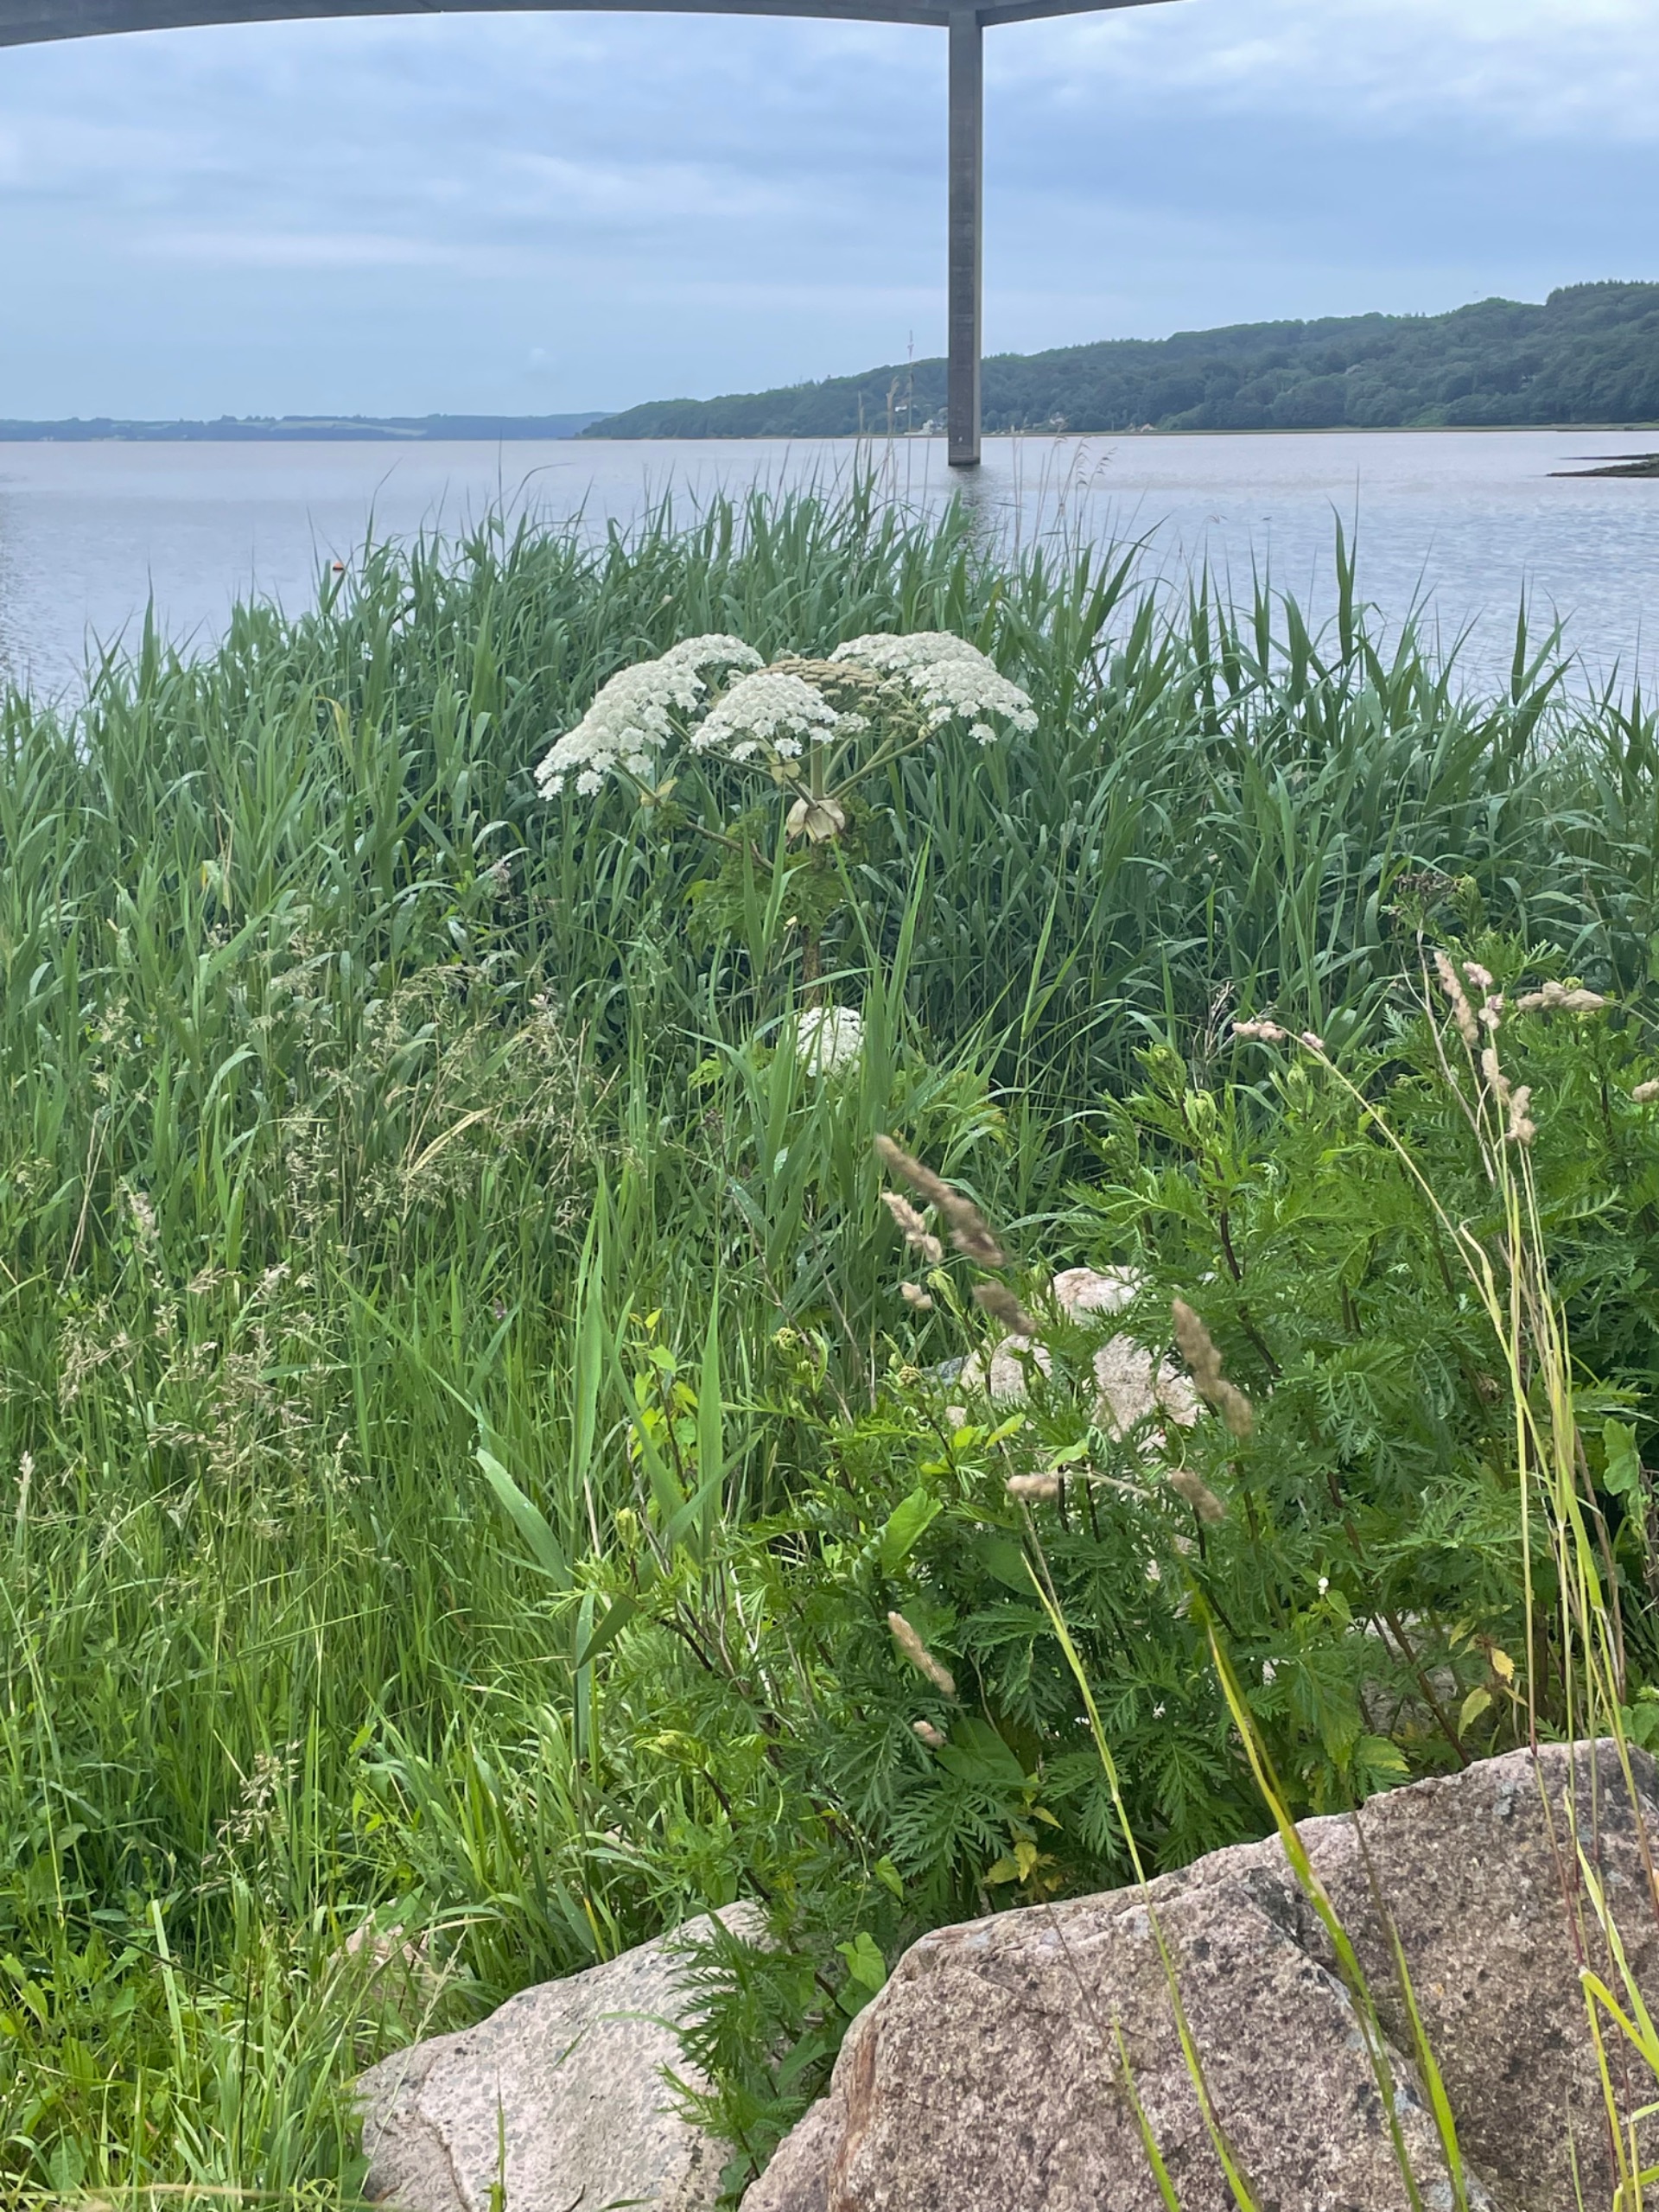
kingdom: Plantae
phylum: Tracheophyta
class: Magnoliopsida
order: Apiales
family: Apiaceae
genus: Heracleum
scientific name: Heracleum mantegazzianum
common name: Kæmpe-bjørneklo
